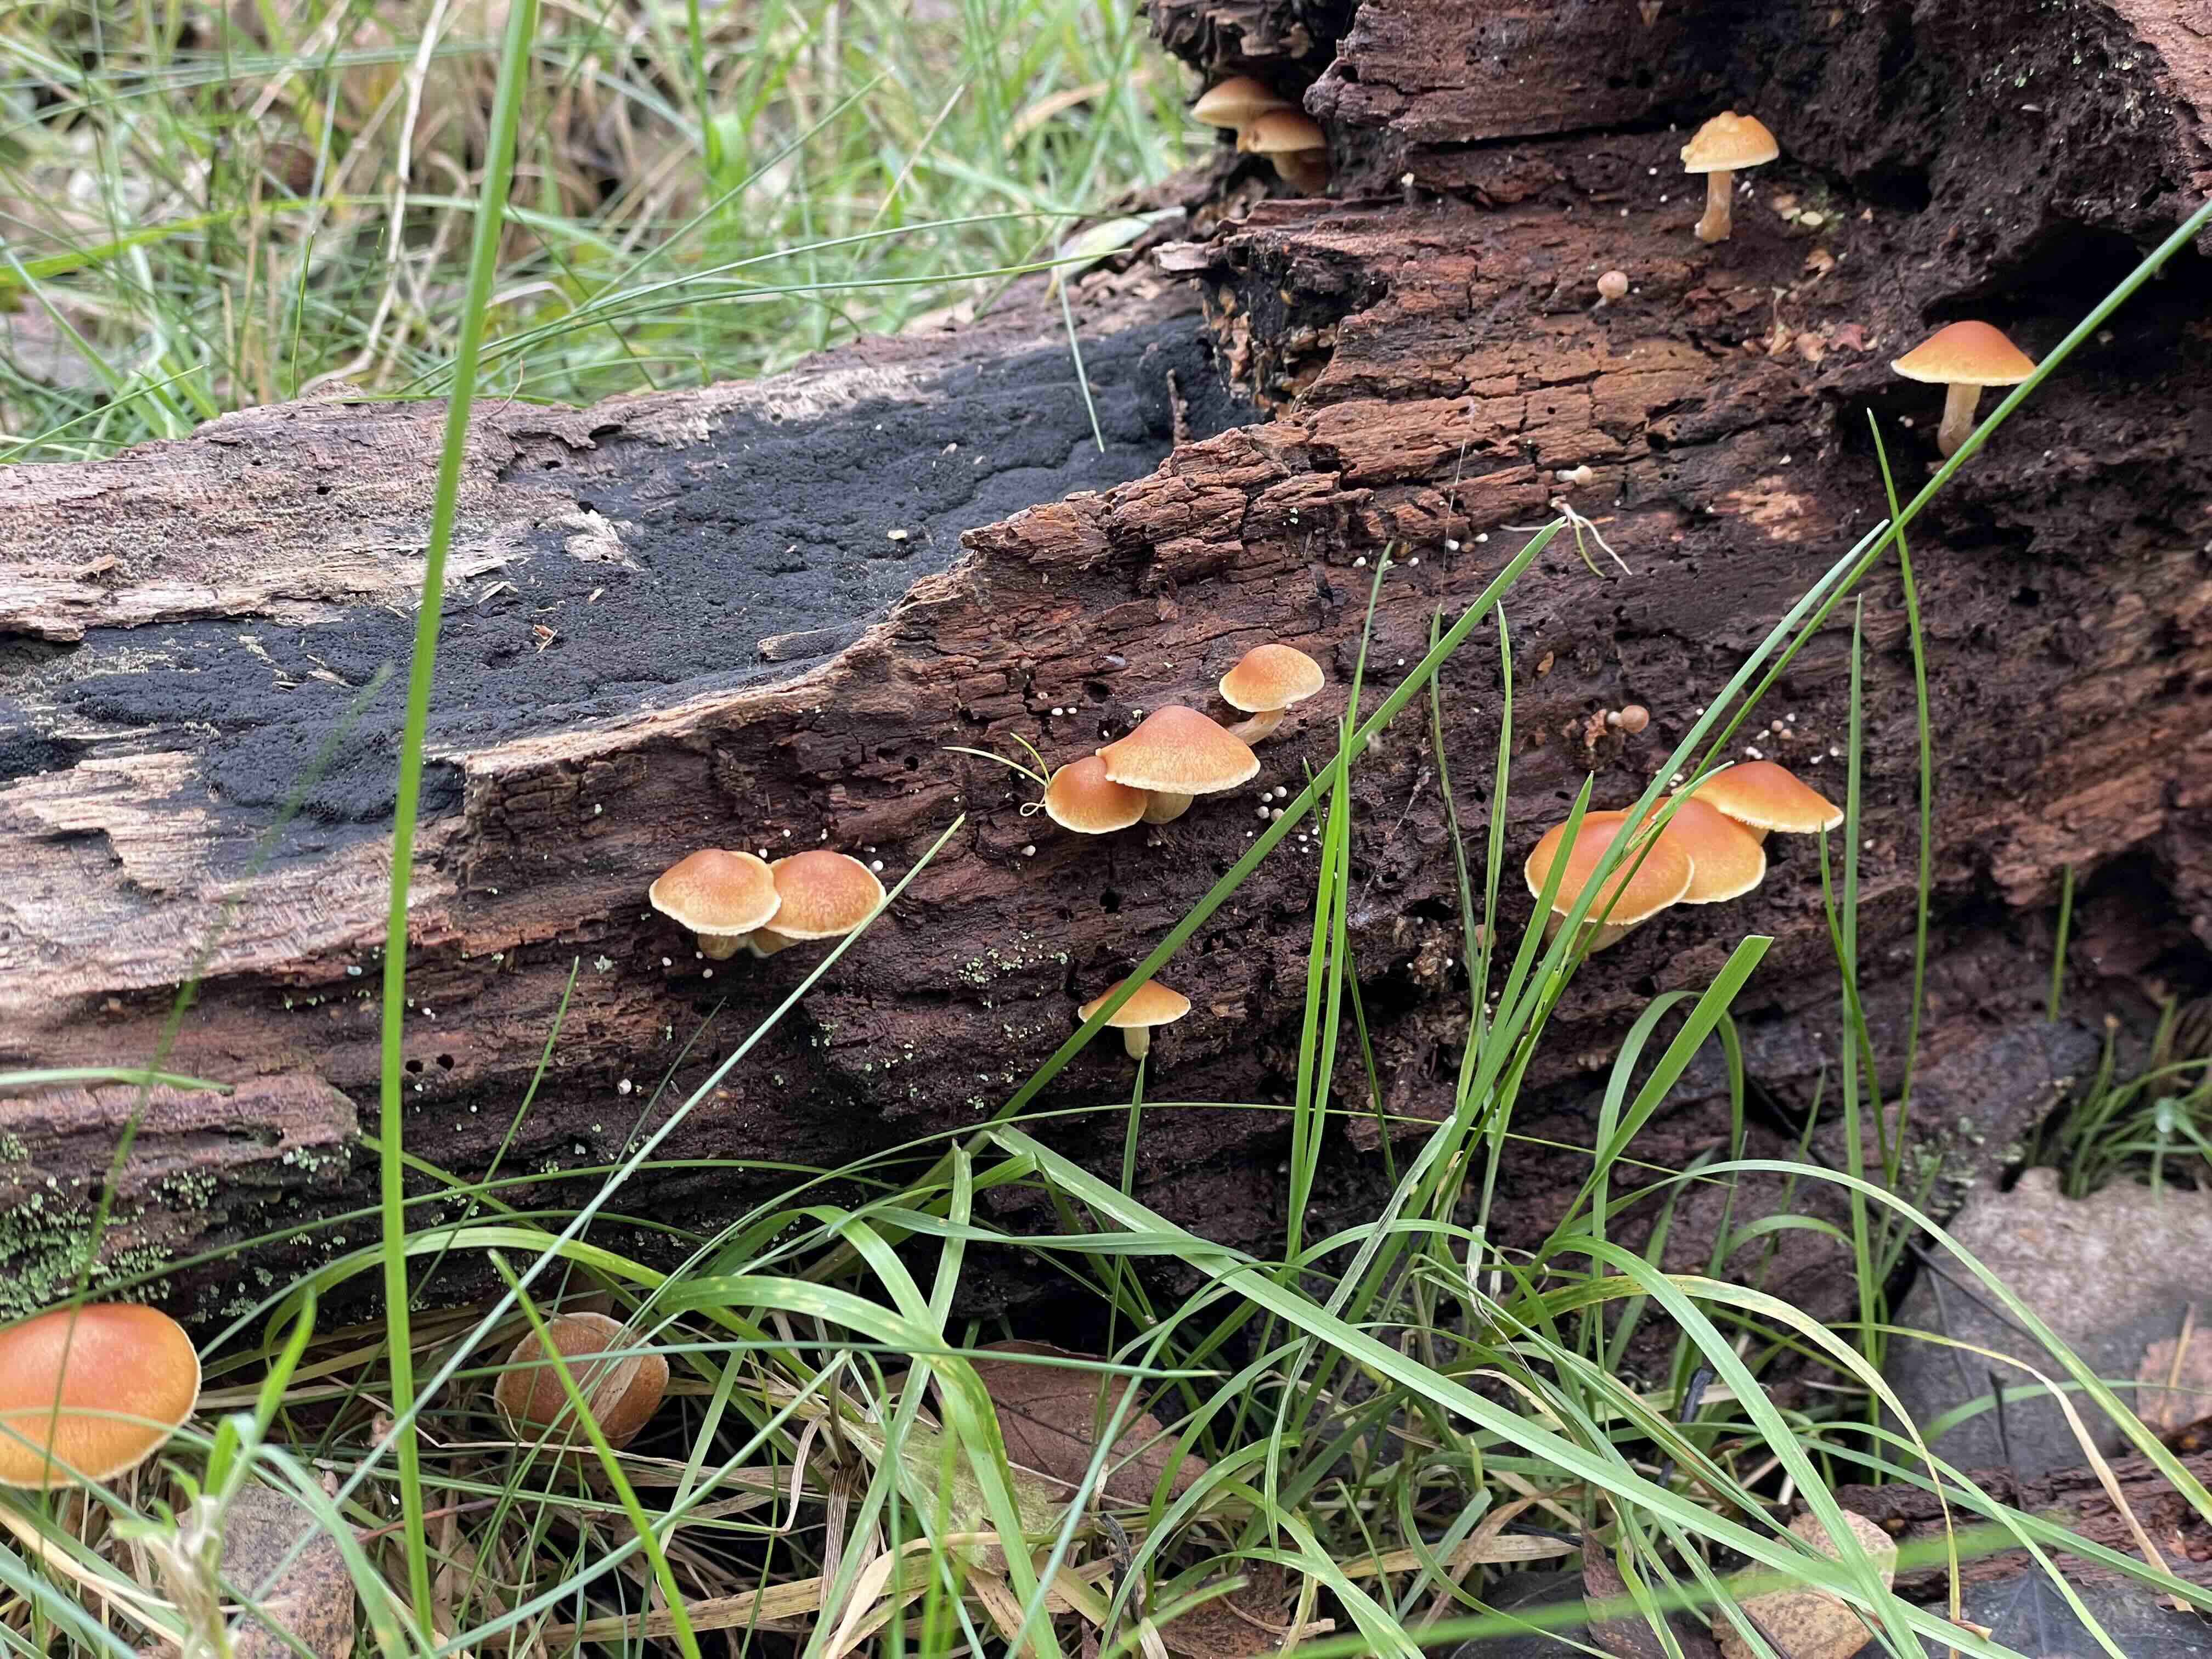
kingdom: Fungi
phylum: Basidiomycota
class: Agaricomycetes
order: Agaricales
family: Hymenogastraceae
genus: Gymnopilus
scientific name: Gymnopilus
